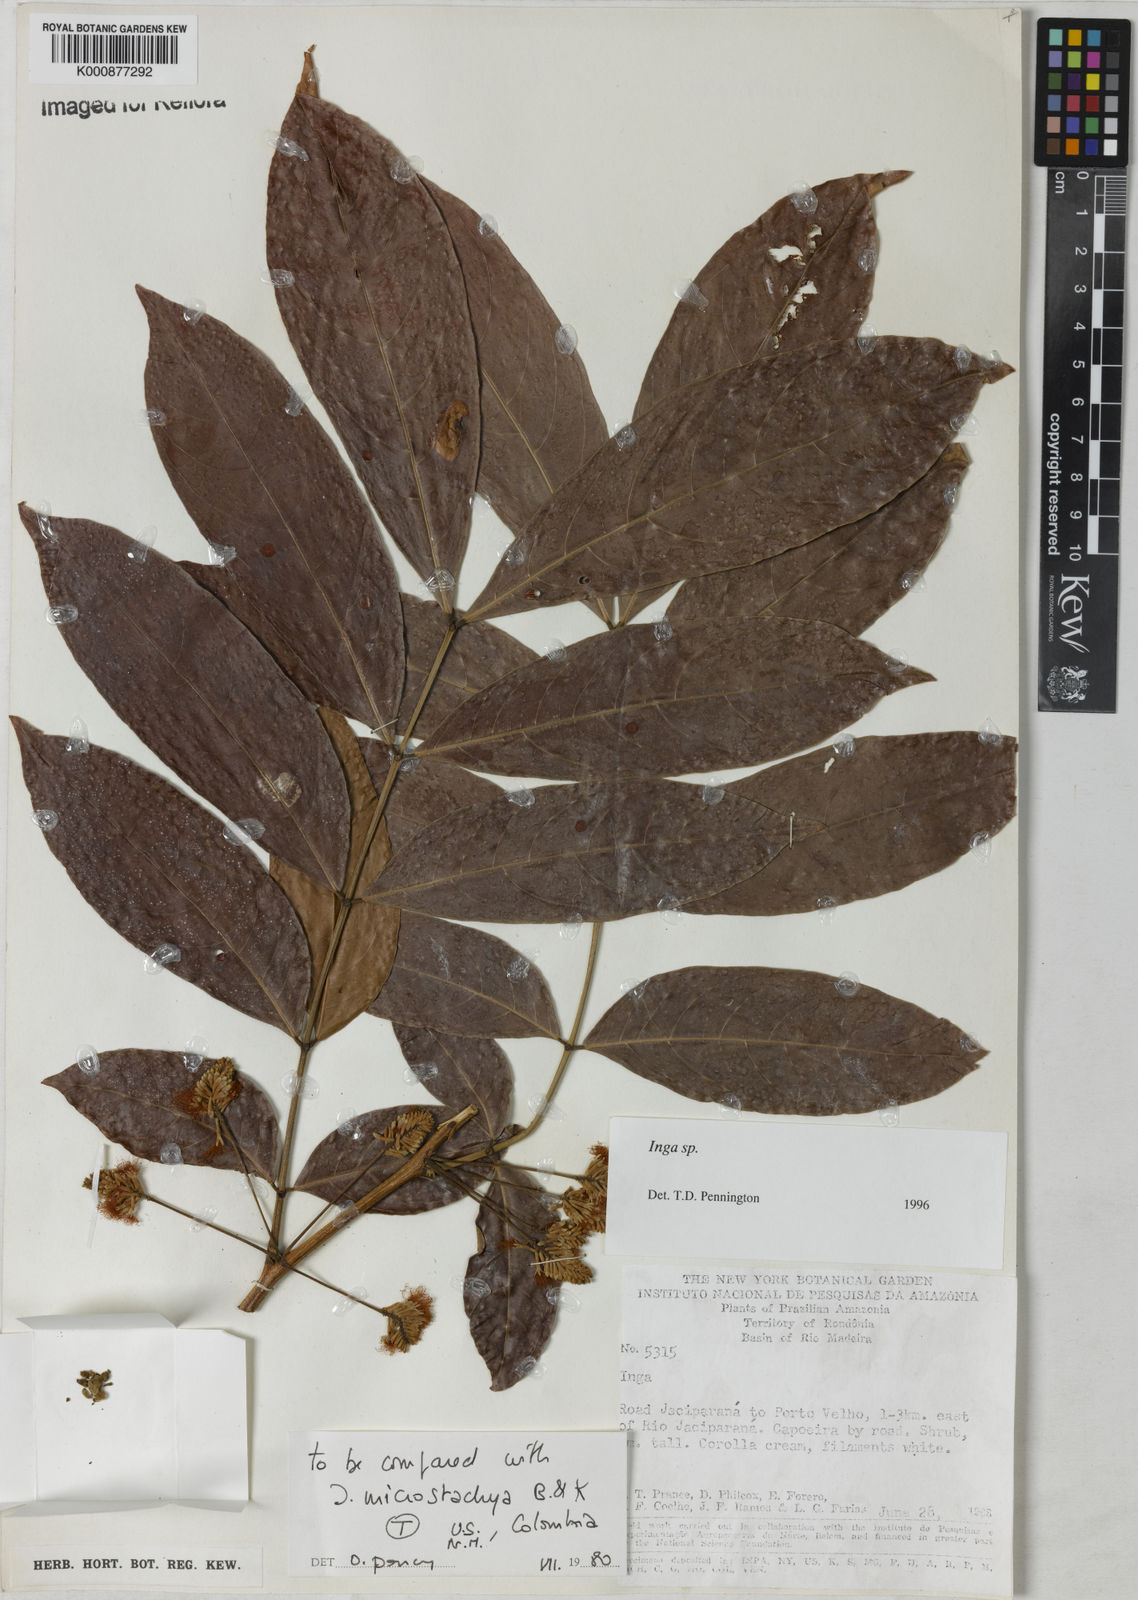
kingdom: Plantae
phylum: Tracheophyta
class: Magnoliopsida
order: Fabales
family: Fabaceae
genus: Inga
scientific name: Inga
